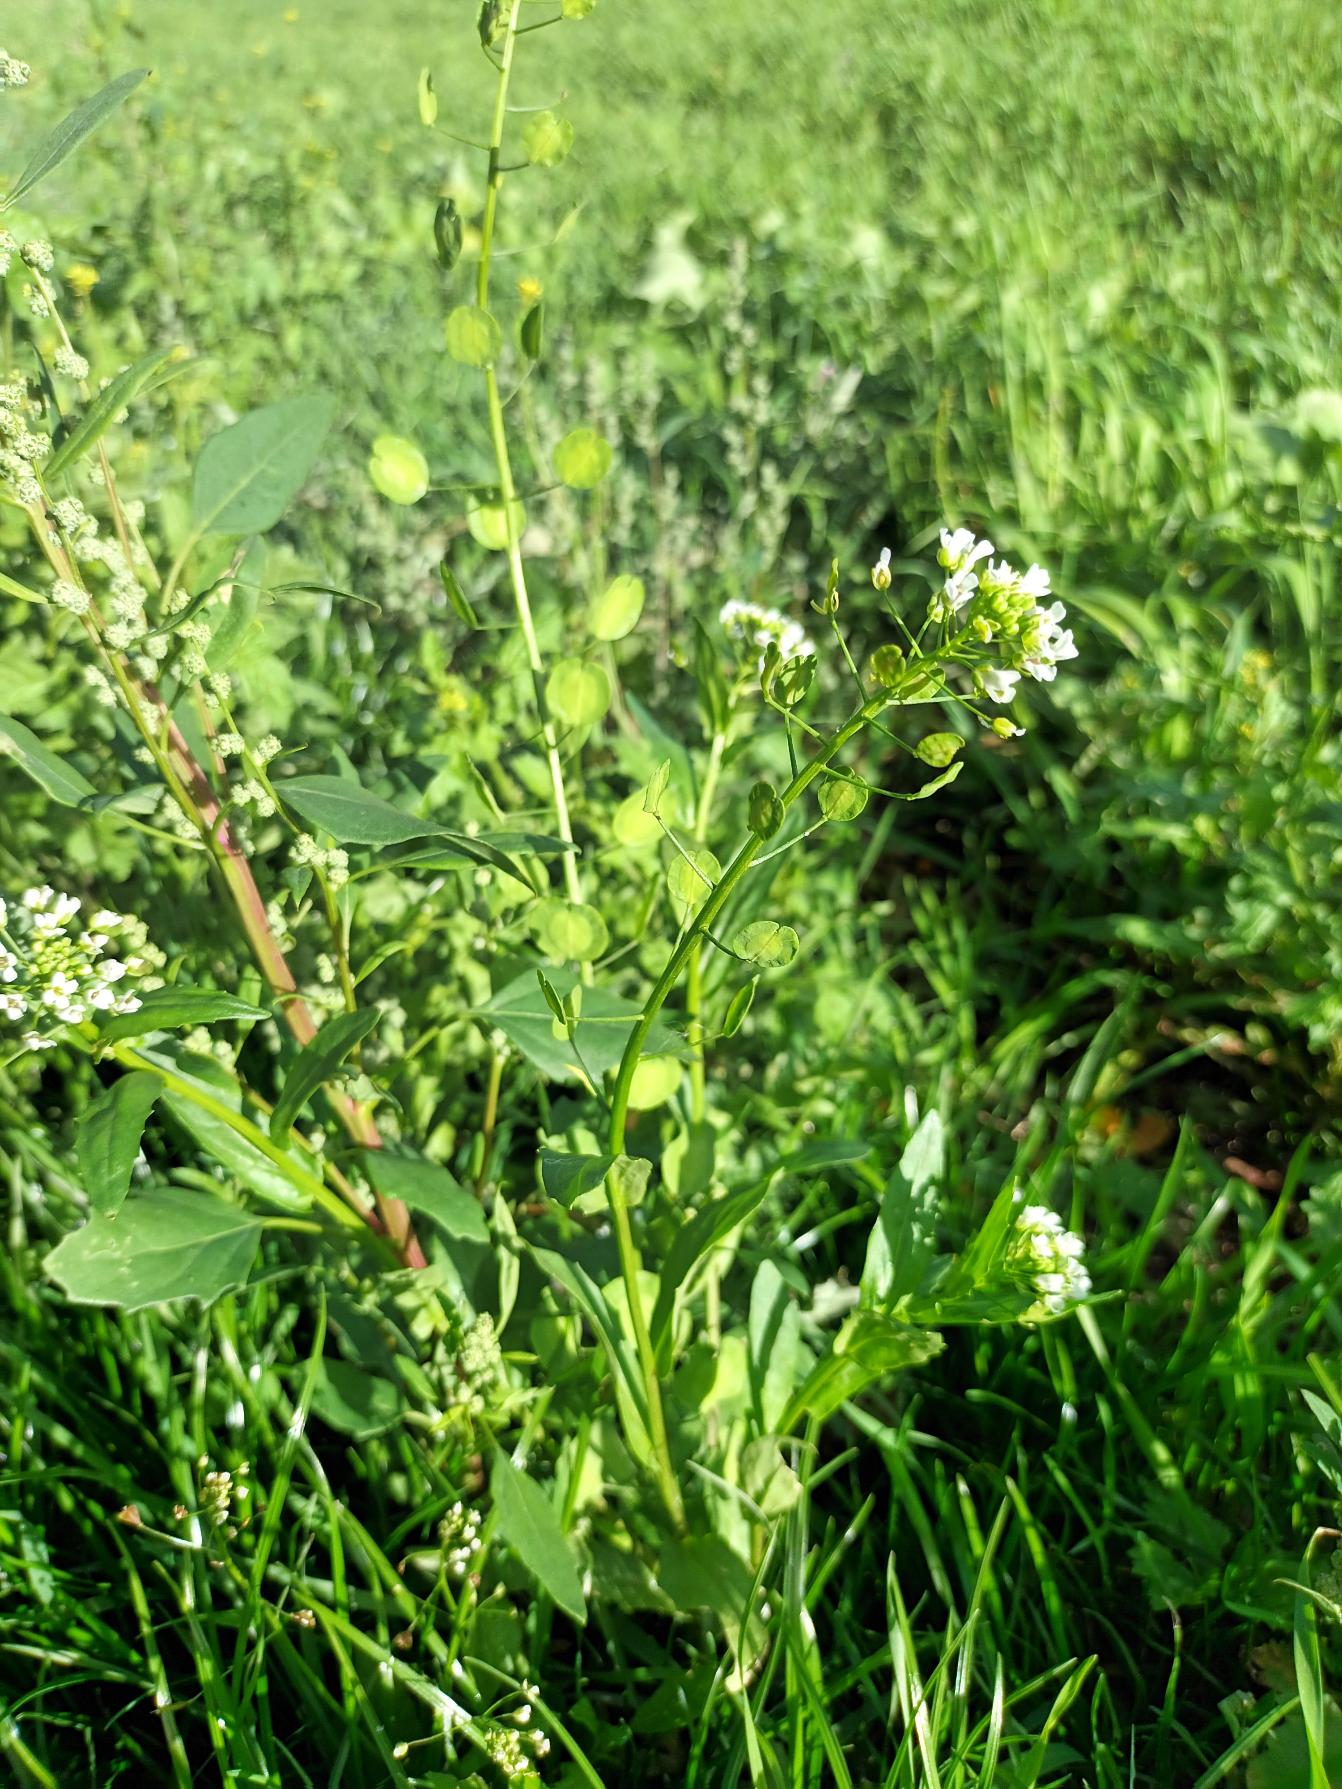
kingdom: Plantae
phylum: Tracheophyta
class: Magnoliopsida
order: Brassicales
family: Brassicaceae
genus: Thlaspi
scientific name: Thlaspi arvense
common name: Almindelig pengeurt
